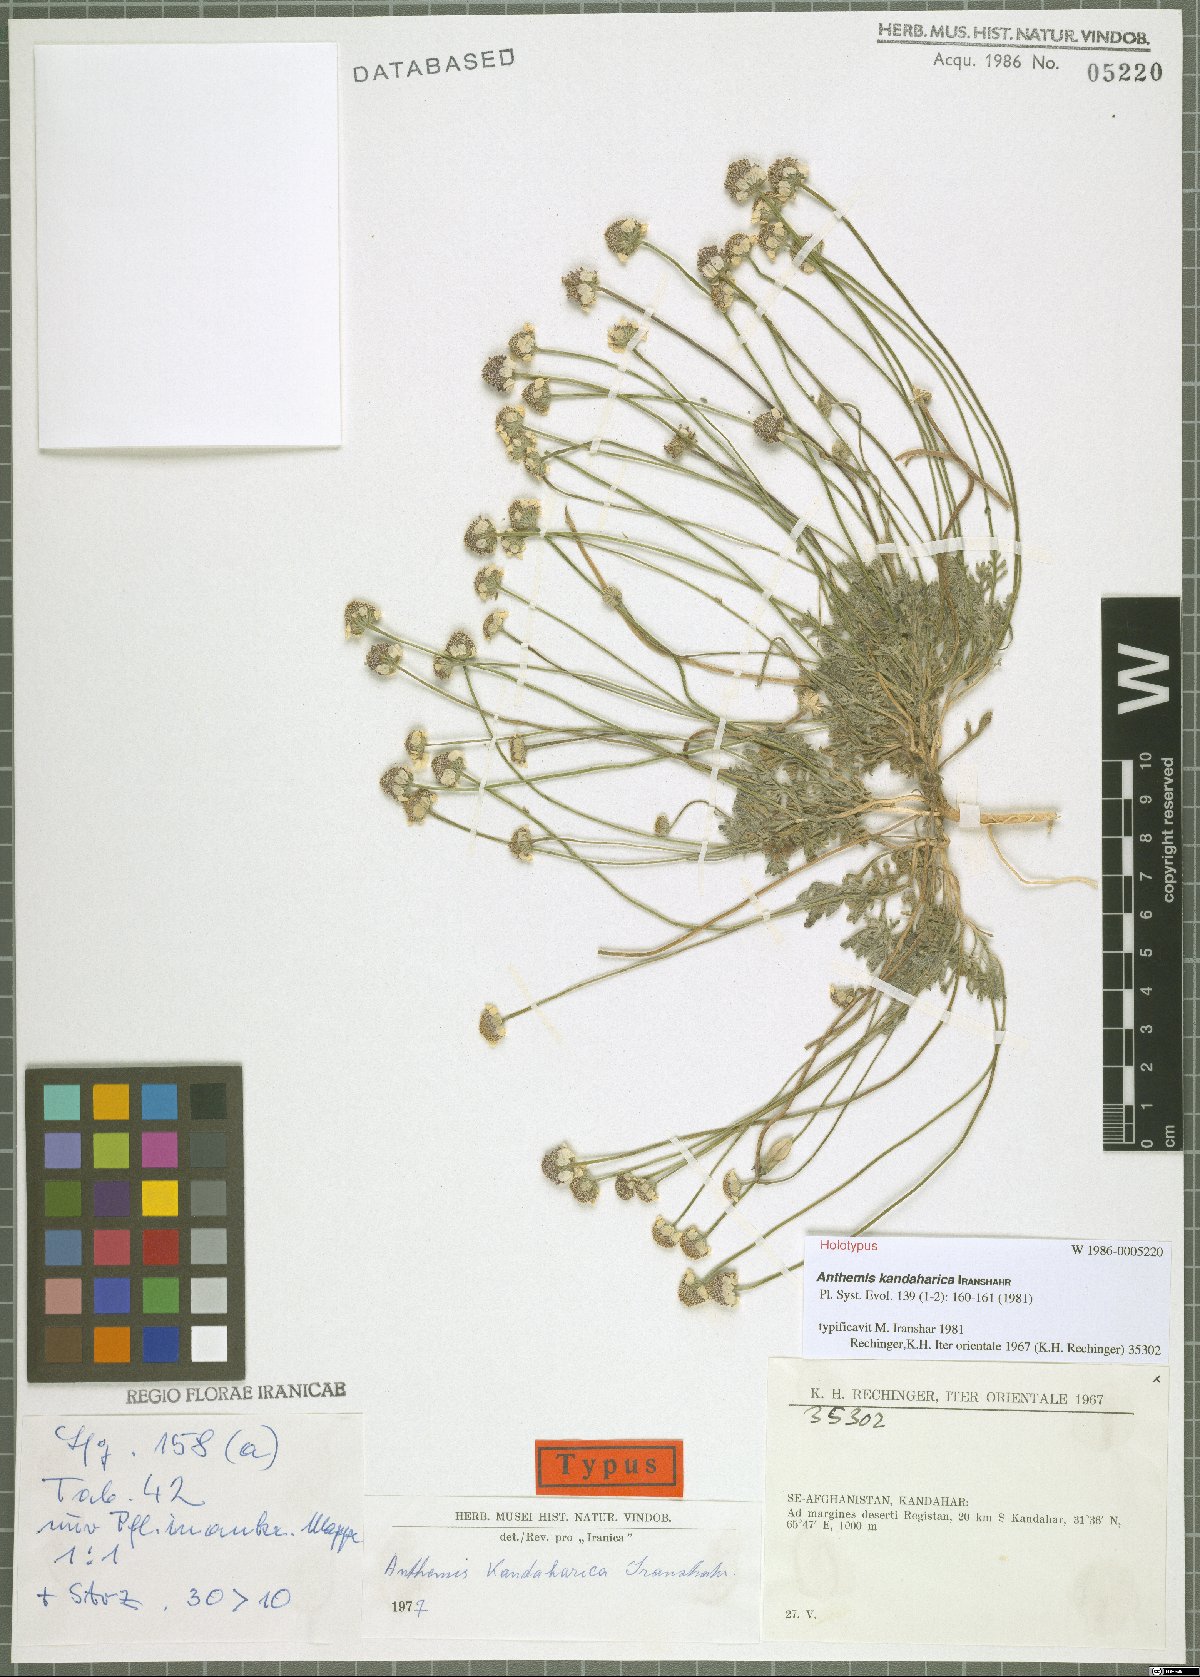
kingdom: Plantae
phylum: Tracheophyta
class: Magnoliopsida
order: Asterales
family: Asteraceae
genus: Anthemis
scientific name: Anthemis kandaharica
